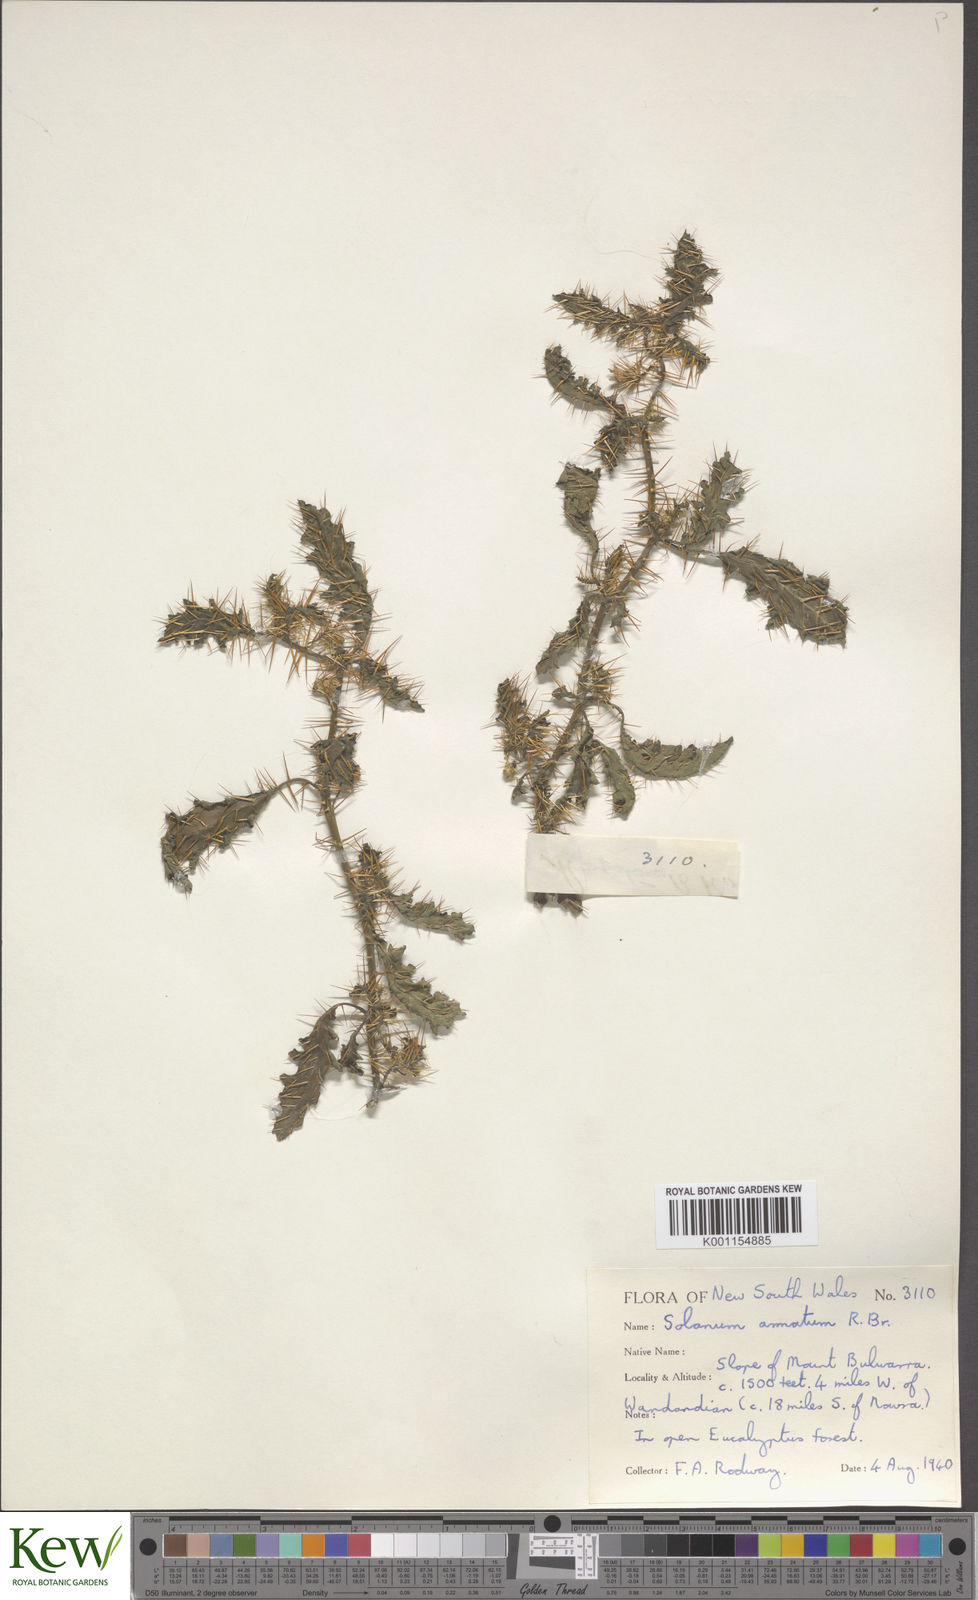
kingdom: Plantae
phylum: Tracheophyta
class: Magnoliopsida
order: Solanales
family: Solanaceae
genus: Solanum
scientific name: Solanum prinophyllum
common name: Forest nightshade
